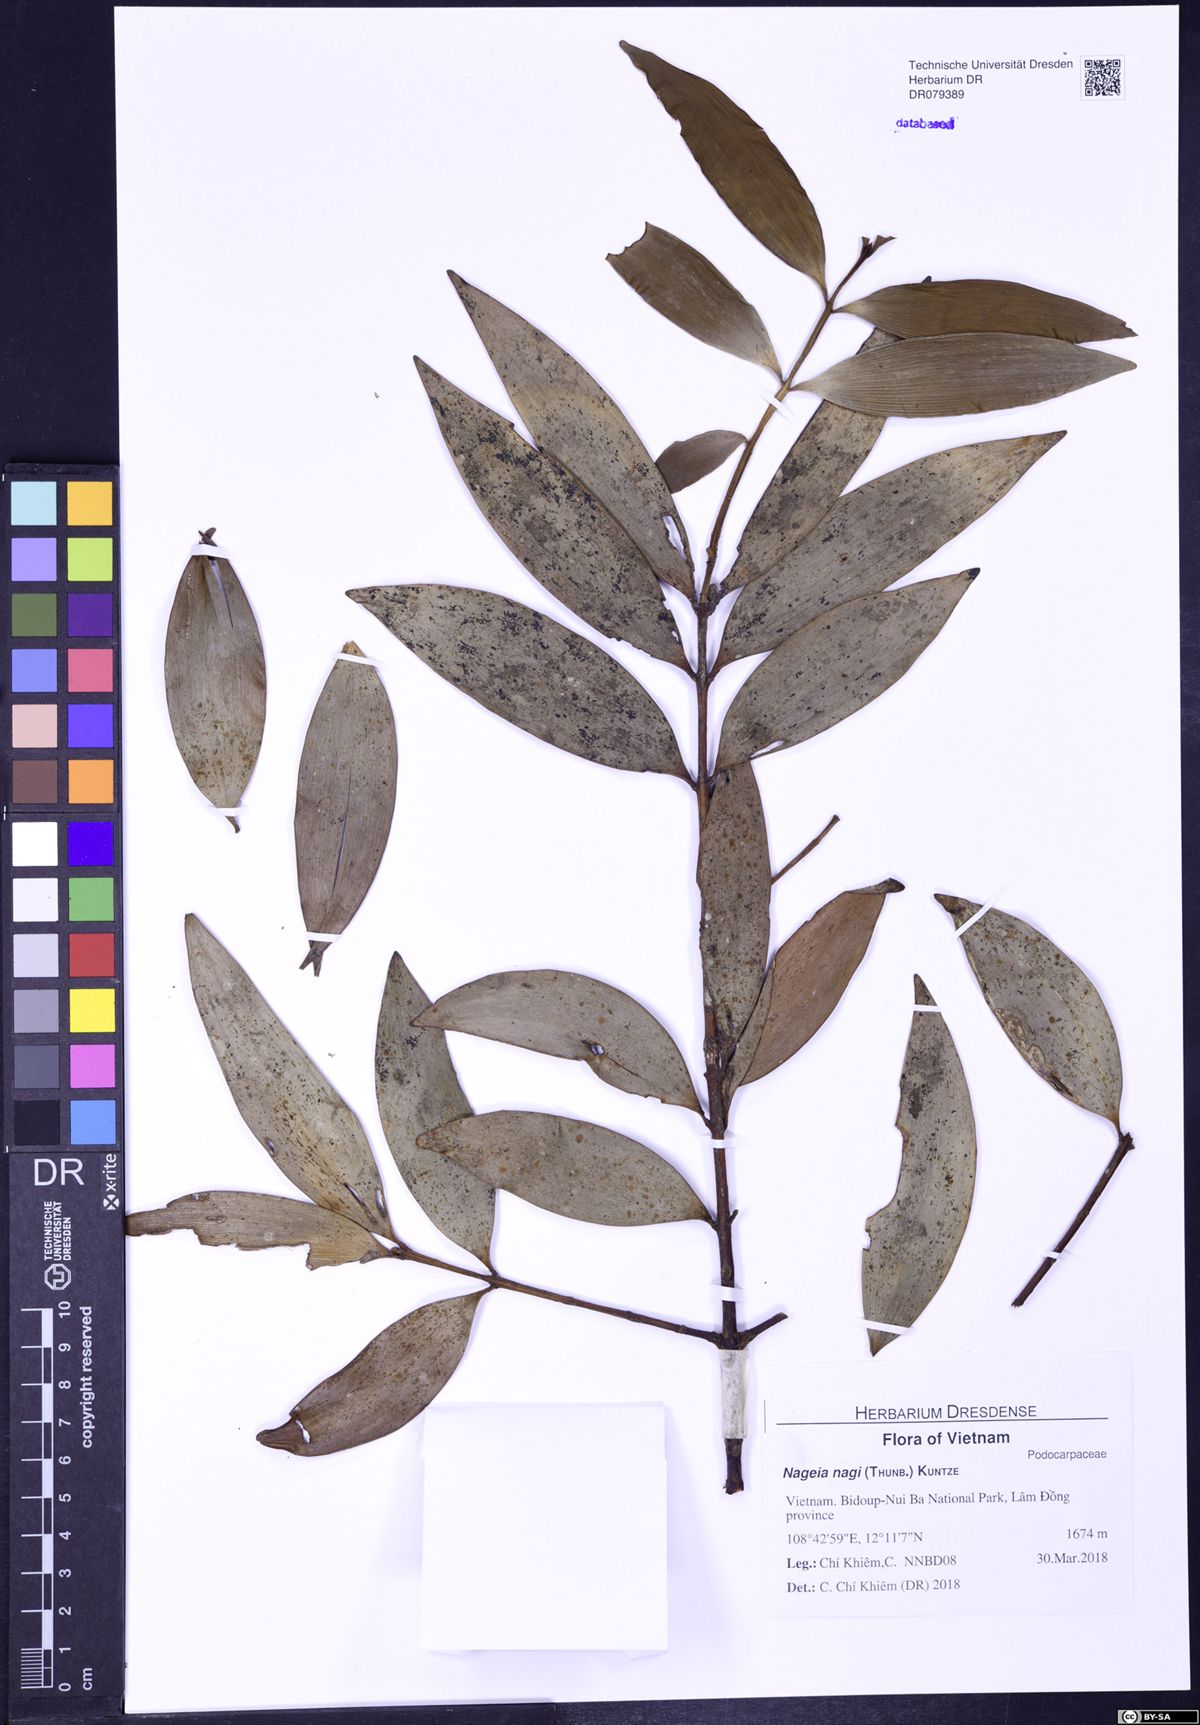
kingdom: Plantae
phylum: Tracheophyta
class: Pinopsida
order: Pinales
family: Podocarpaceae
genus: Nageia
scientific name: Nageia nagi
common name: Kaphal
